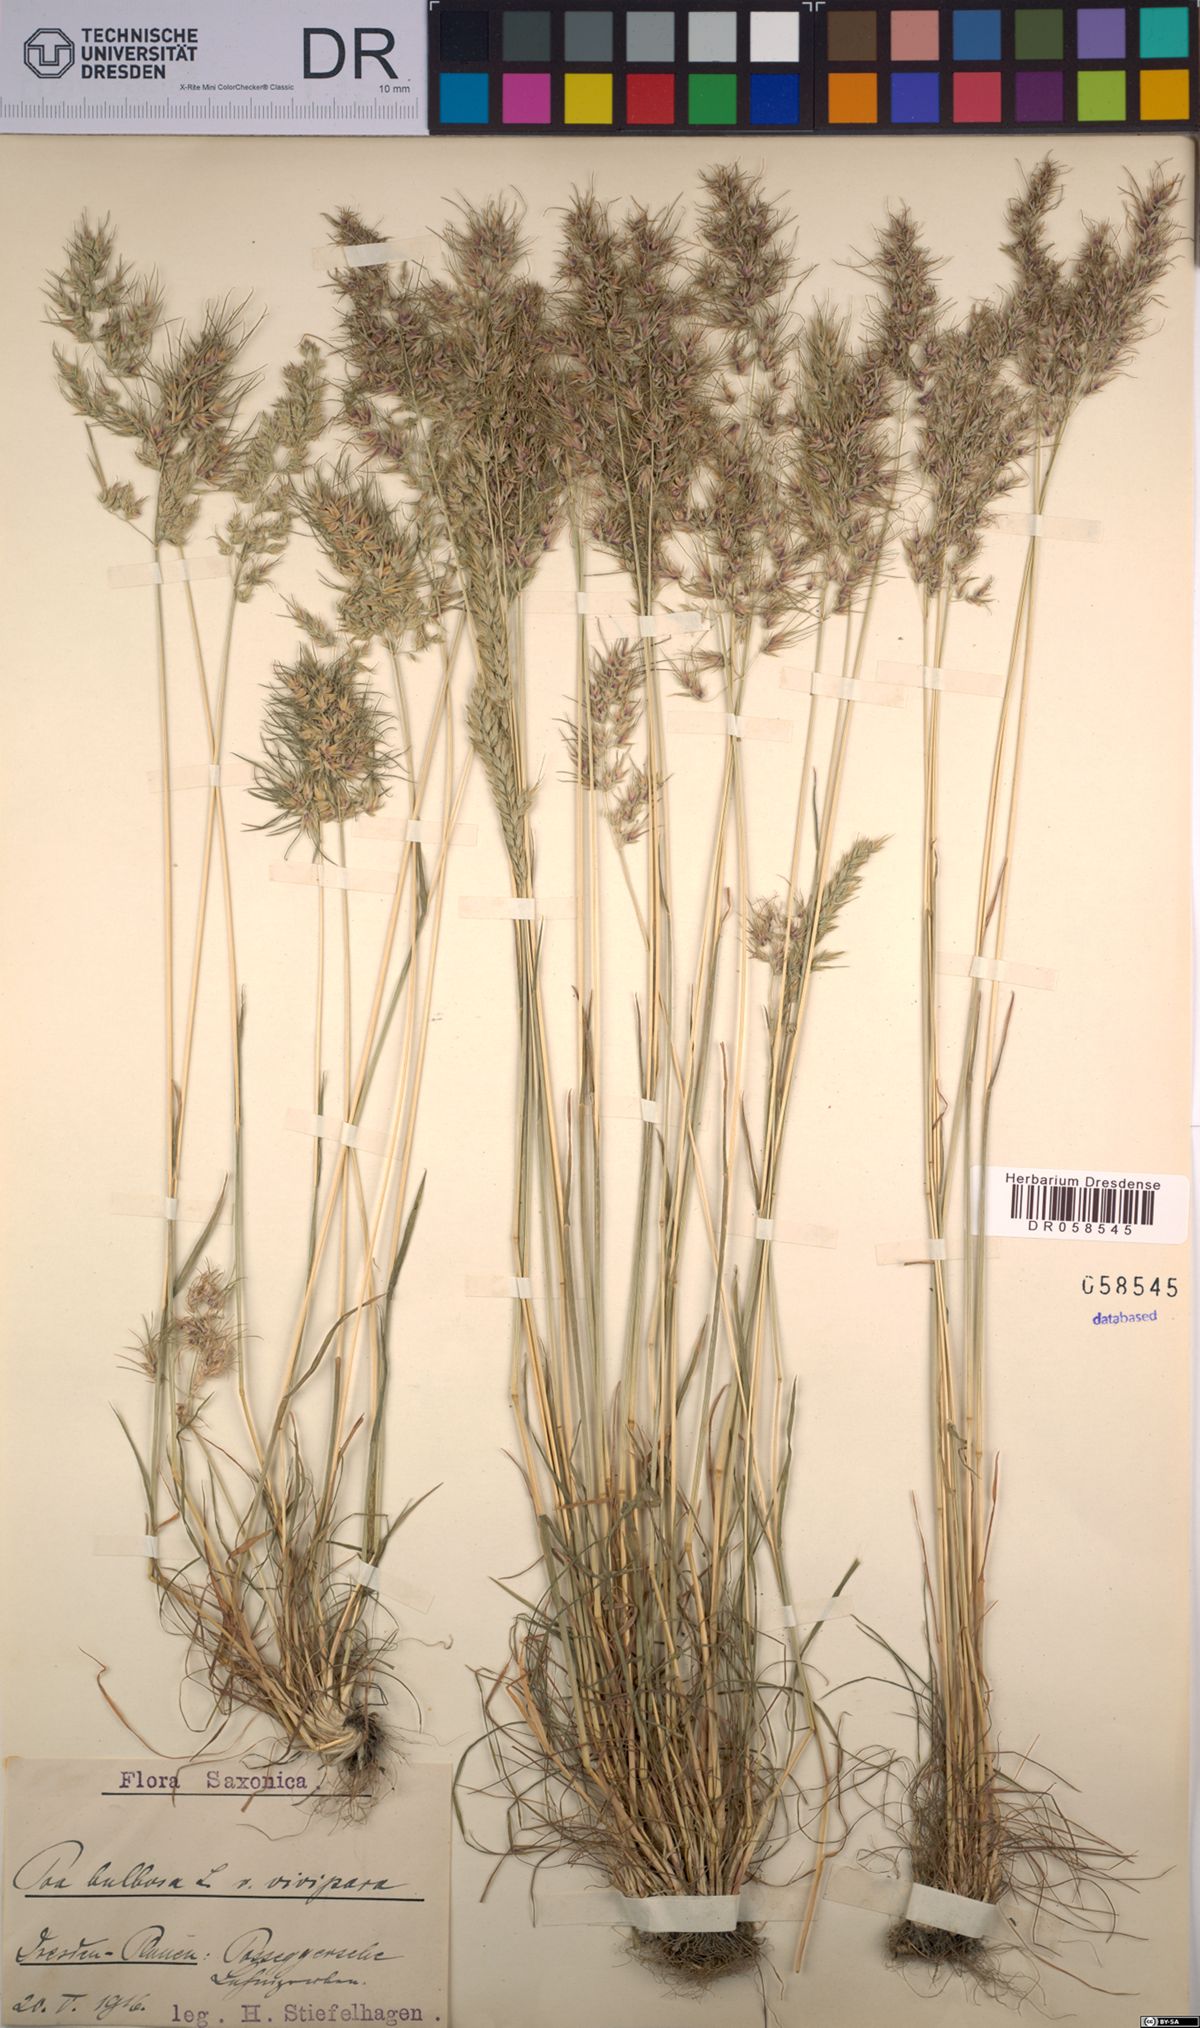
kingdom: Plantae
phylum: Tracheophyta
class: Liliopsida
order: Poales
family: Poaceae
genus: Poa
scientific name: Poa bulbosa
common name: Bulbous bluegrass
